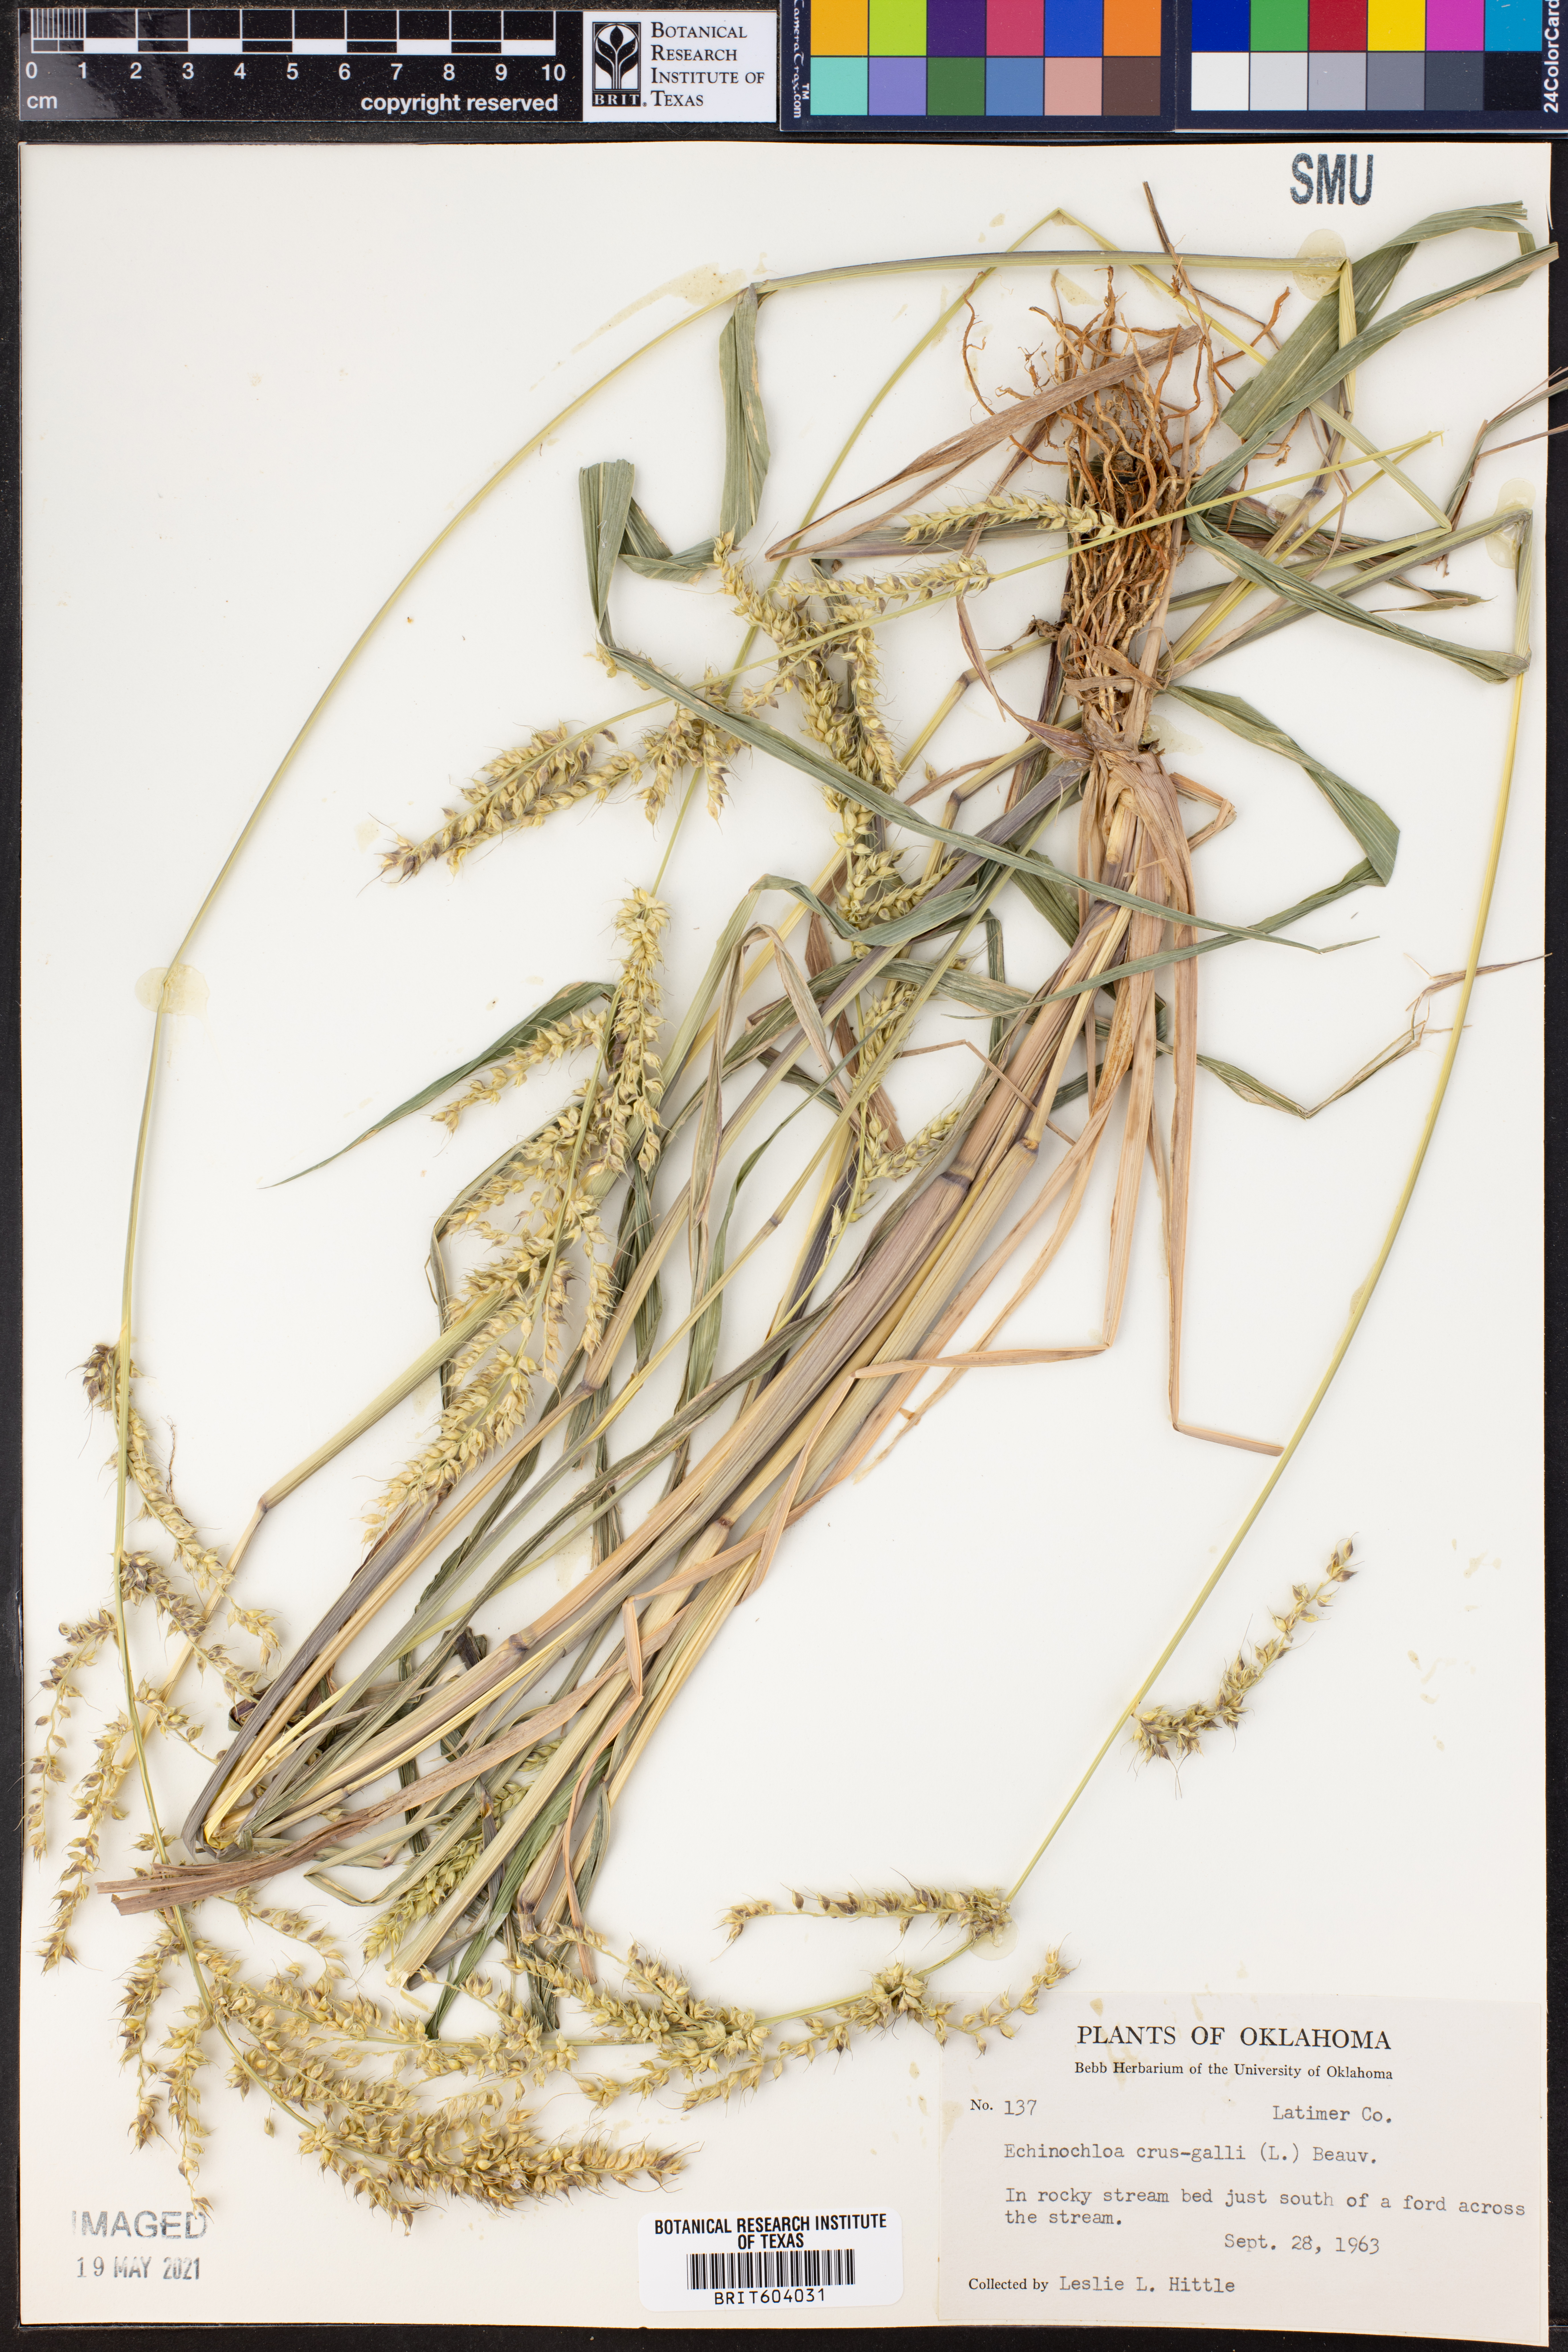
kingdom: Plantae
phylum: Tracheophyta
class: Liliopsida
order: Poales
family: Poaceae
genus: Echinochloa
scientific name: Echinochloa crus-galli
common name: Cockspur
